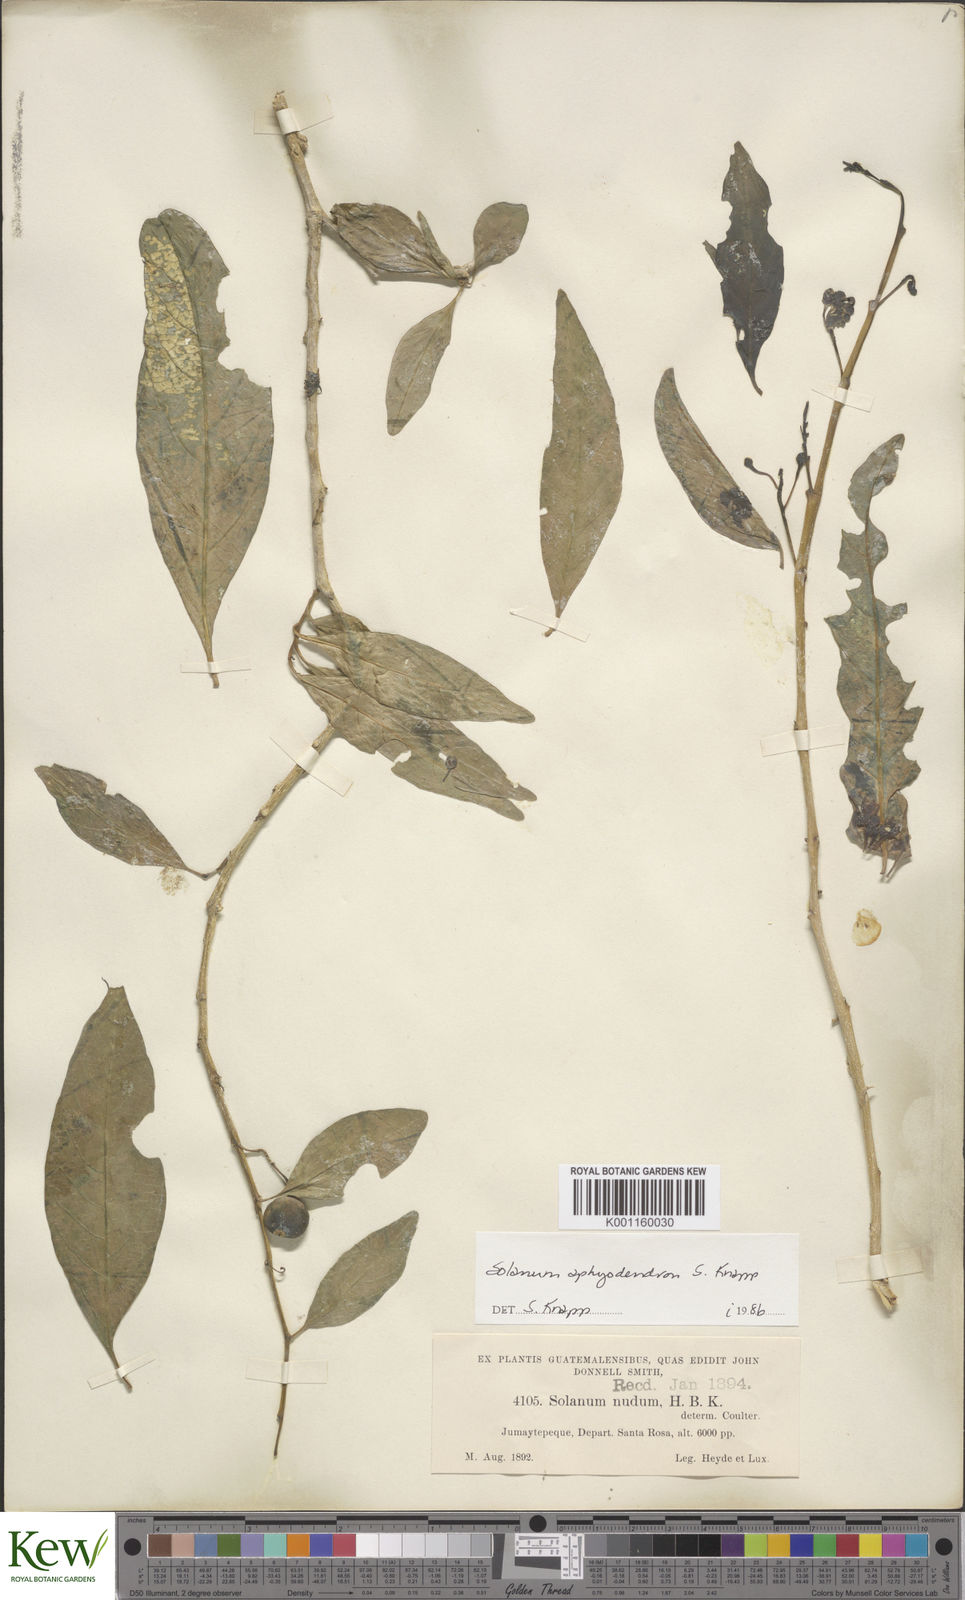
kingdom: Plantae
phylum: Tracheophyta
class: Magnoliopsida
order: Solanales
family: Solanaceae
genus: Solanum
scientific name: Solanum aphyodendron
